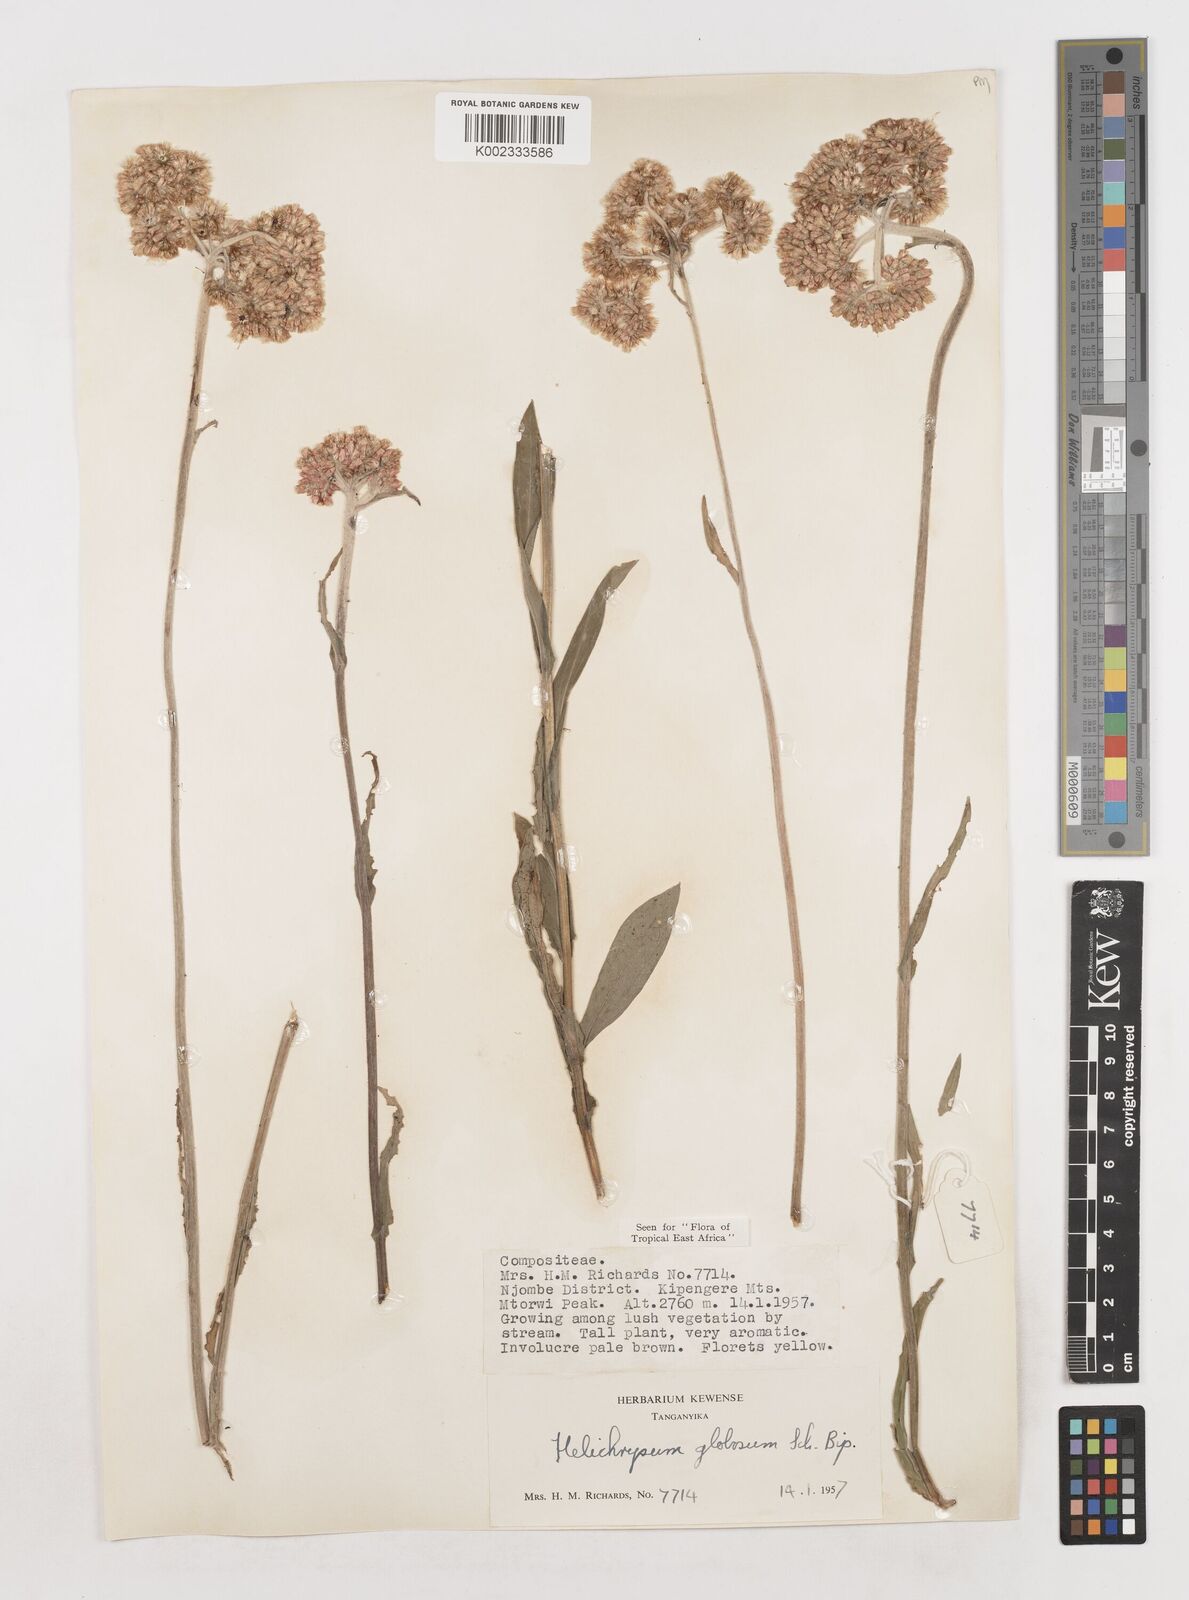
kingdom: Plantae
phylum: Tracheophyta
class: Magnoliopsida
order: Asterales
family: Asteraceae
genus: Helichrysum
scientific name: Helichrysum globosum
